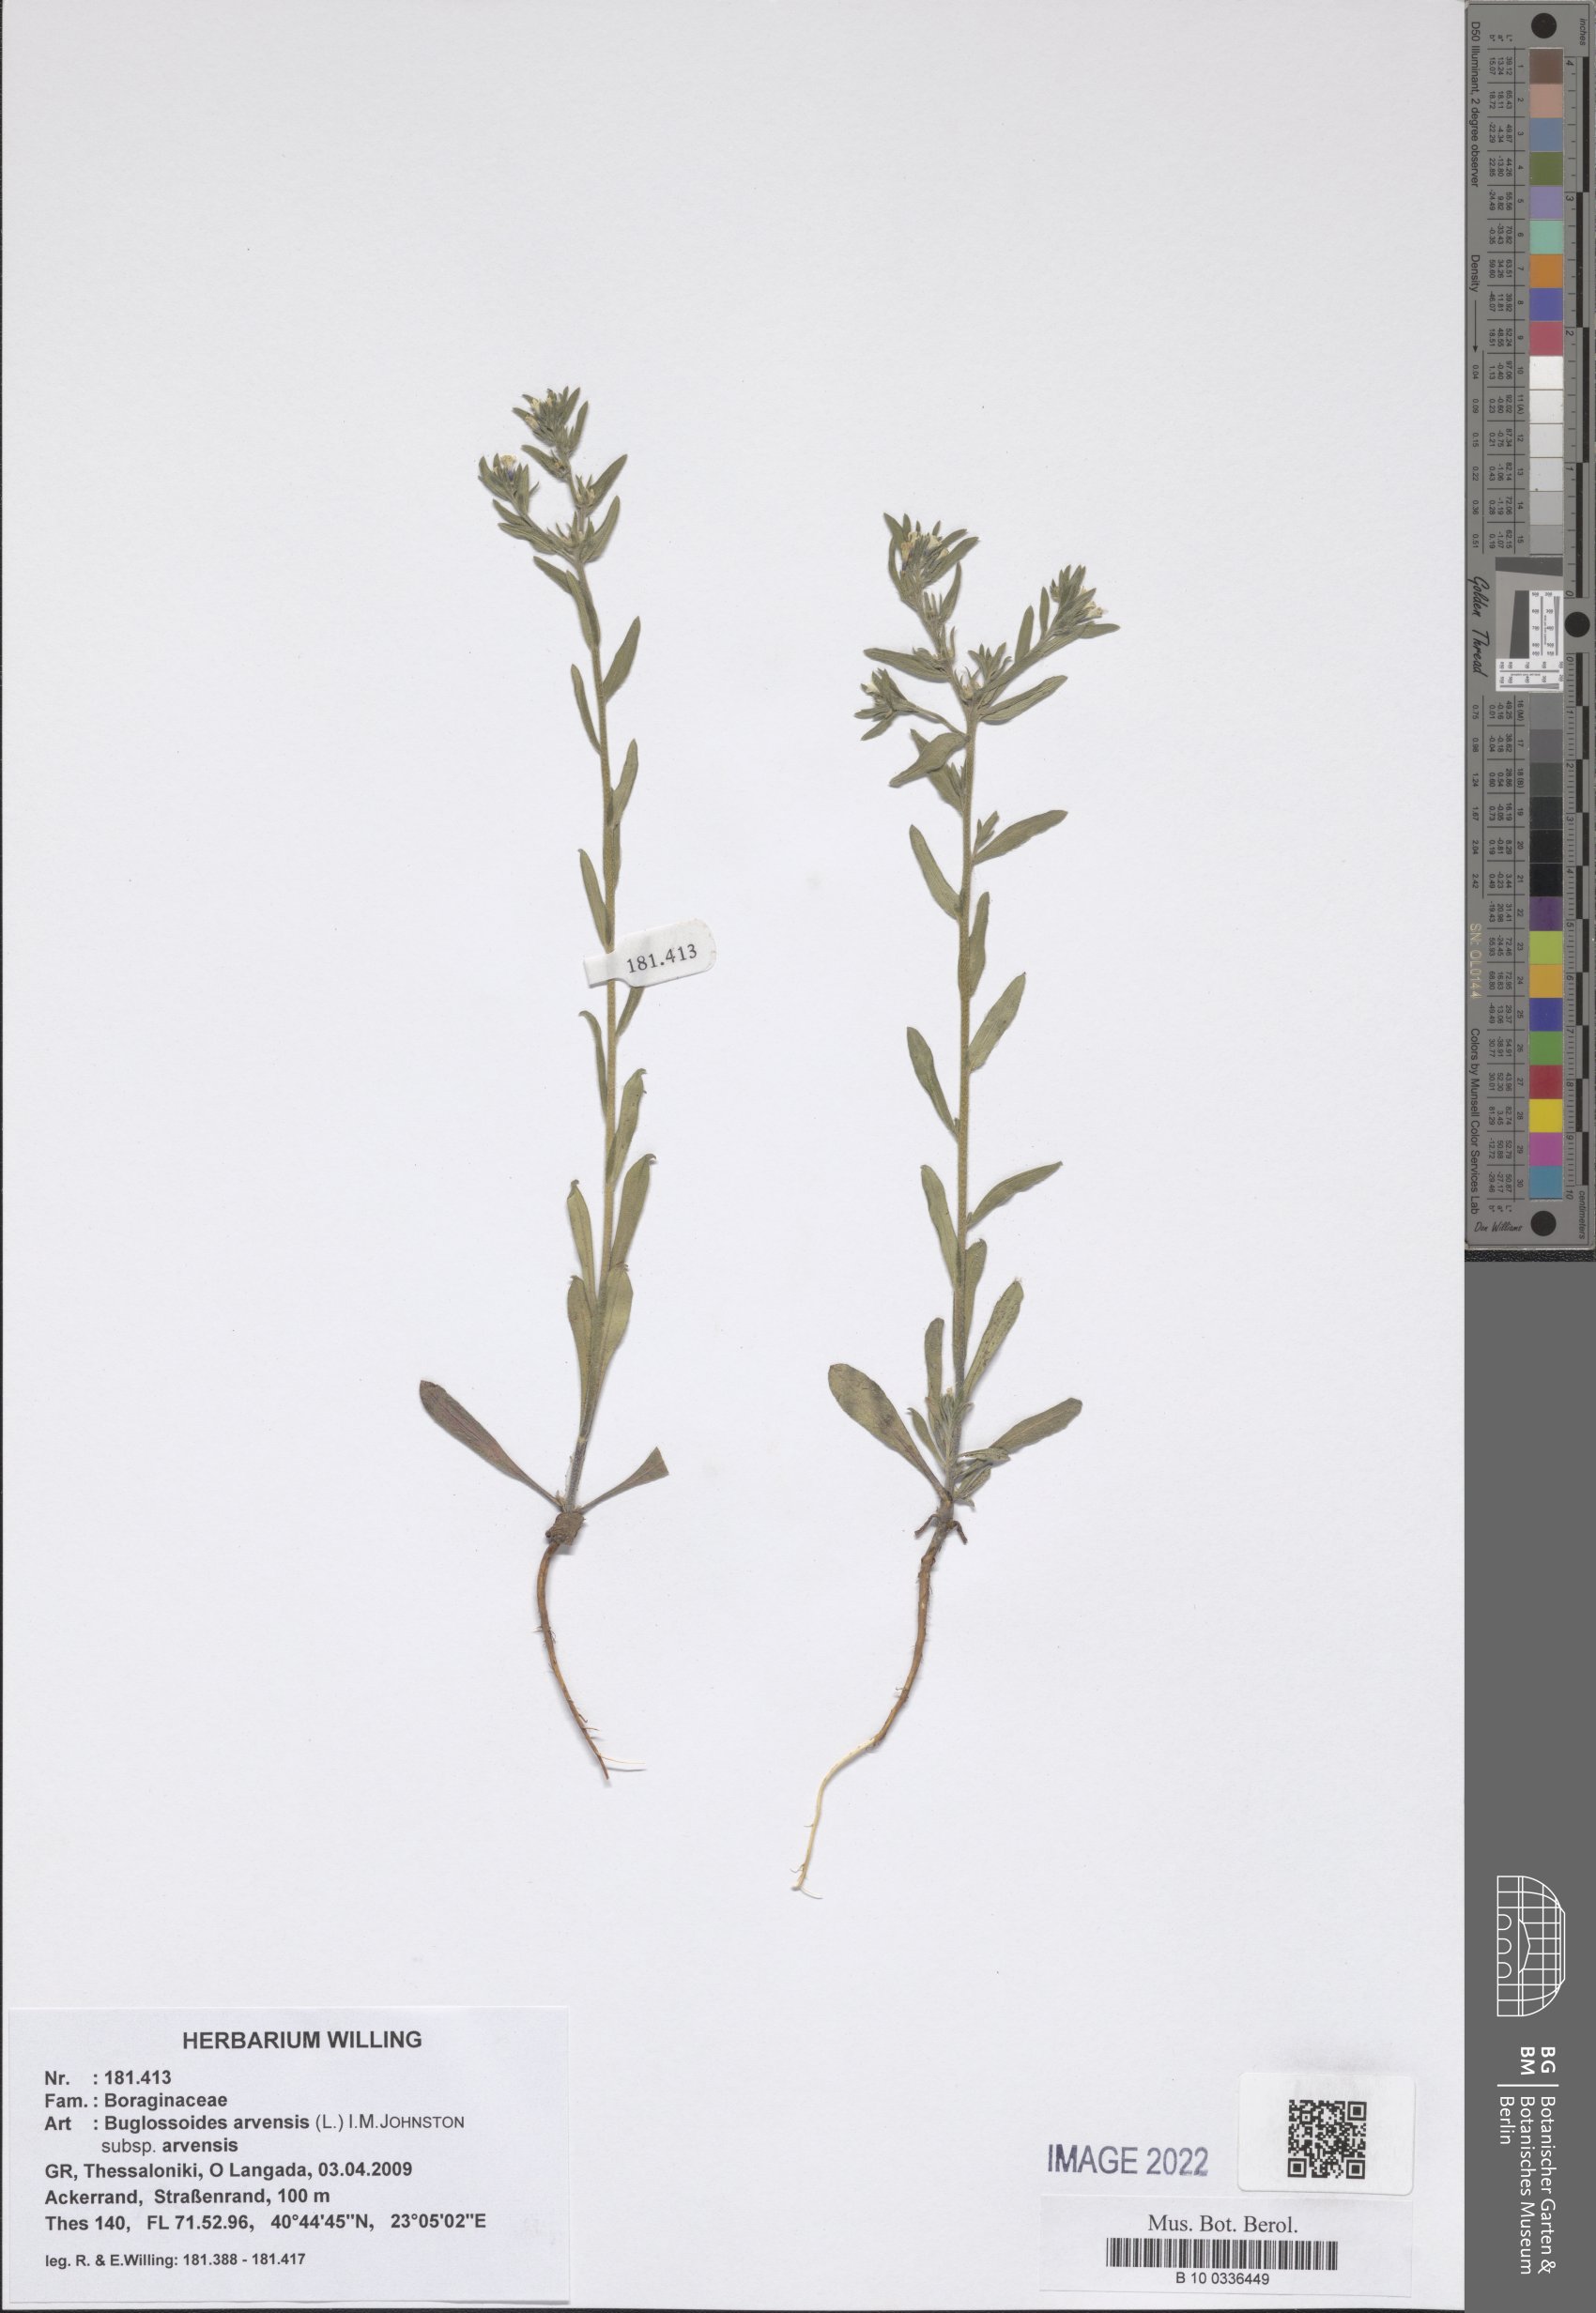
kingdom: Plantae
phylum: Tracheophyta
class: Magnoliopsida
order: Boraginales
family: Boraginaceae
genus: Buglossoides
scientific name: Buglossoides arvensis
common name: Corn gromwell
